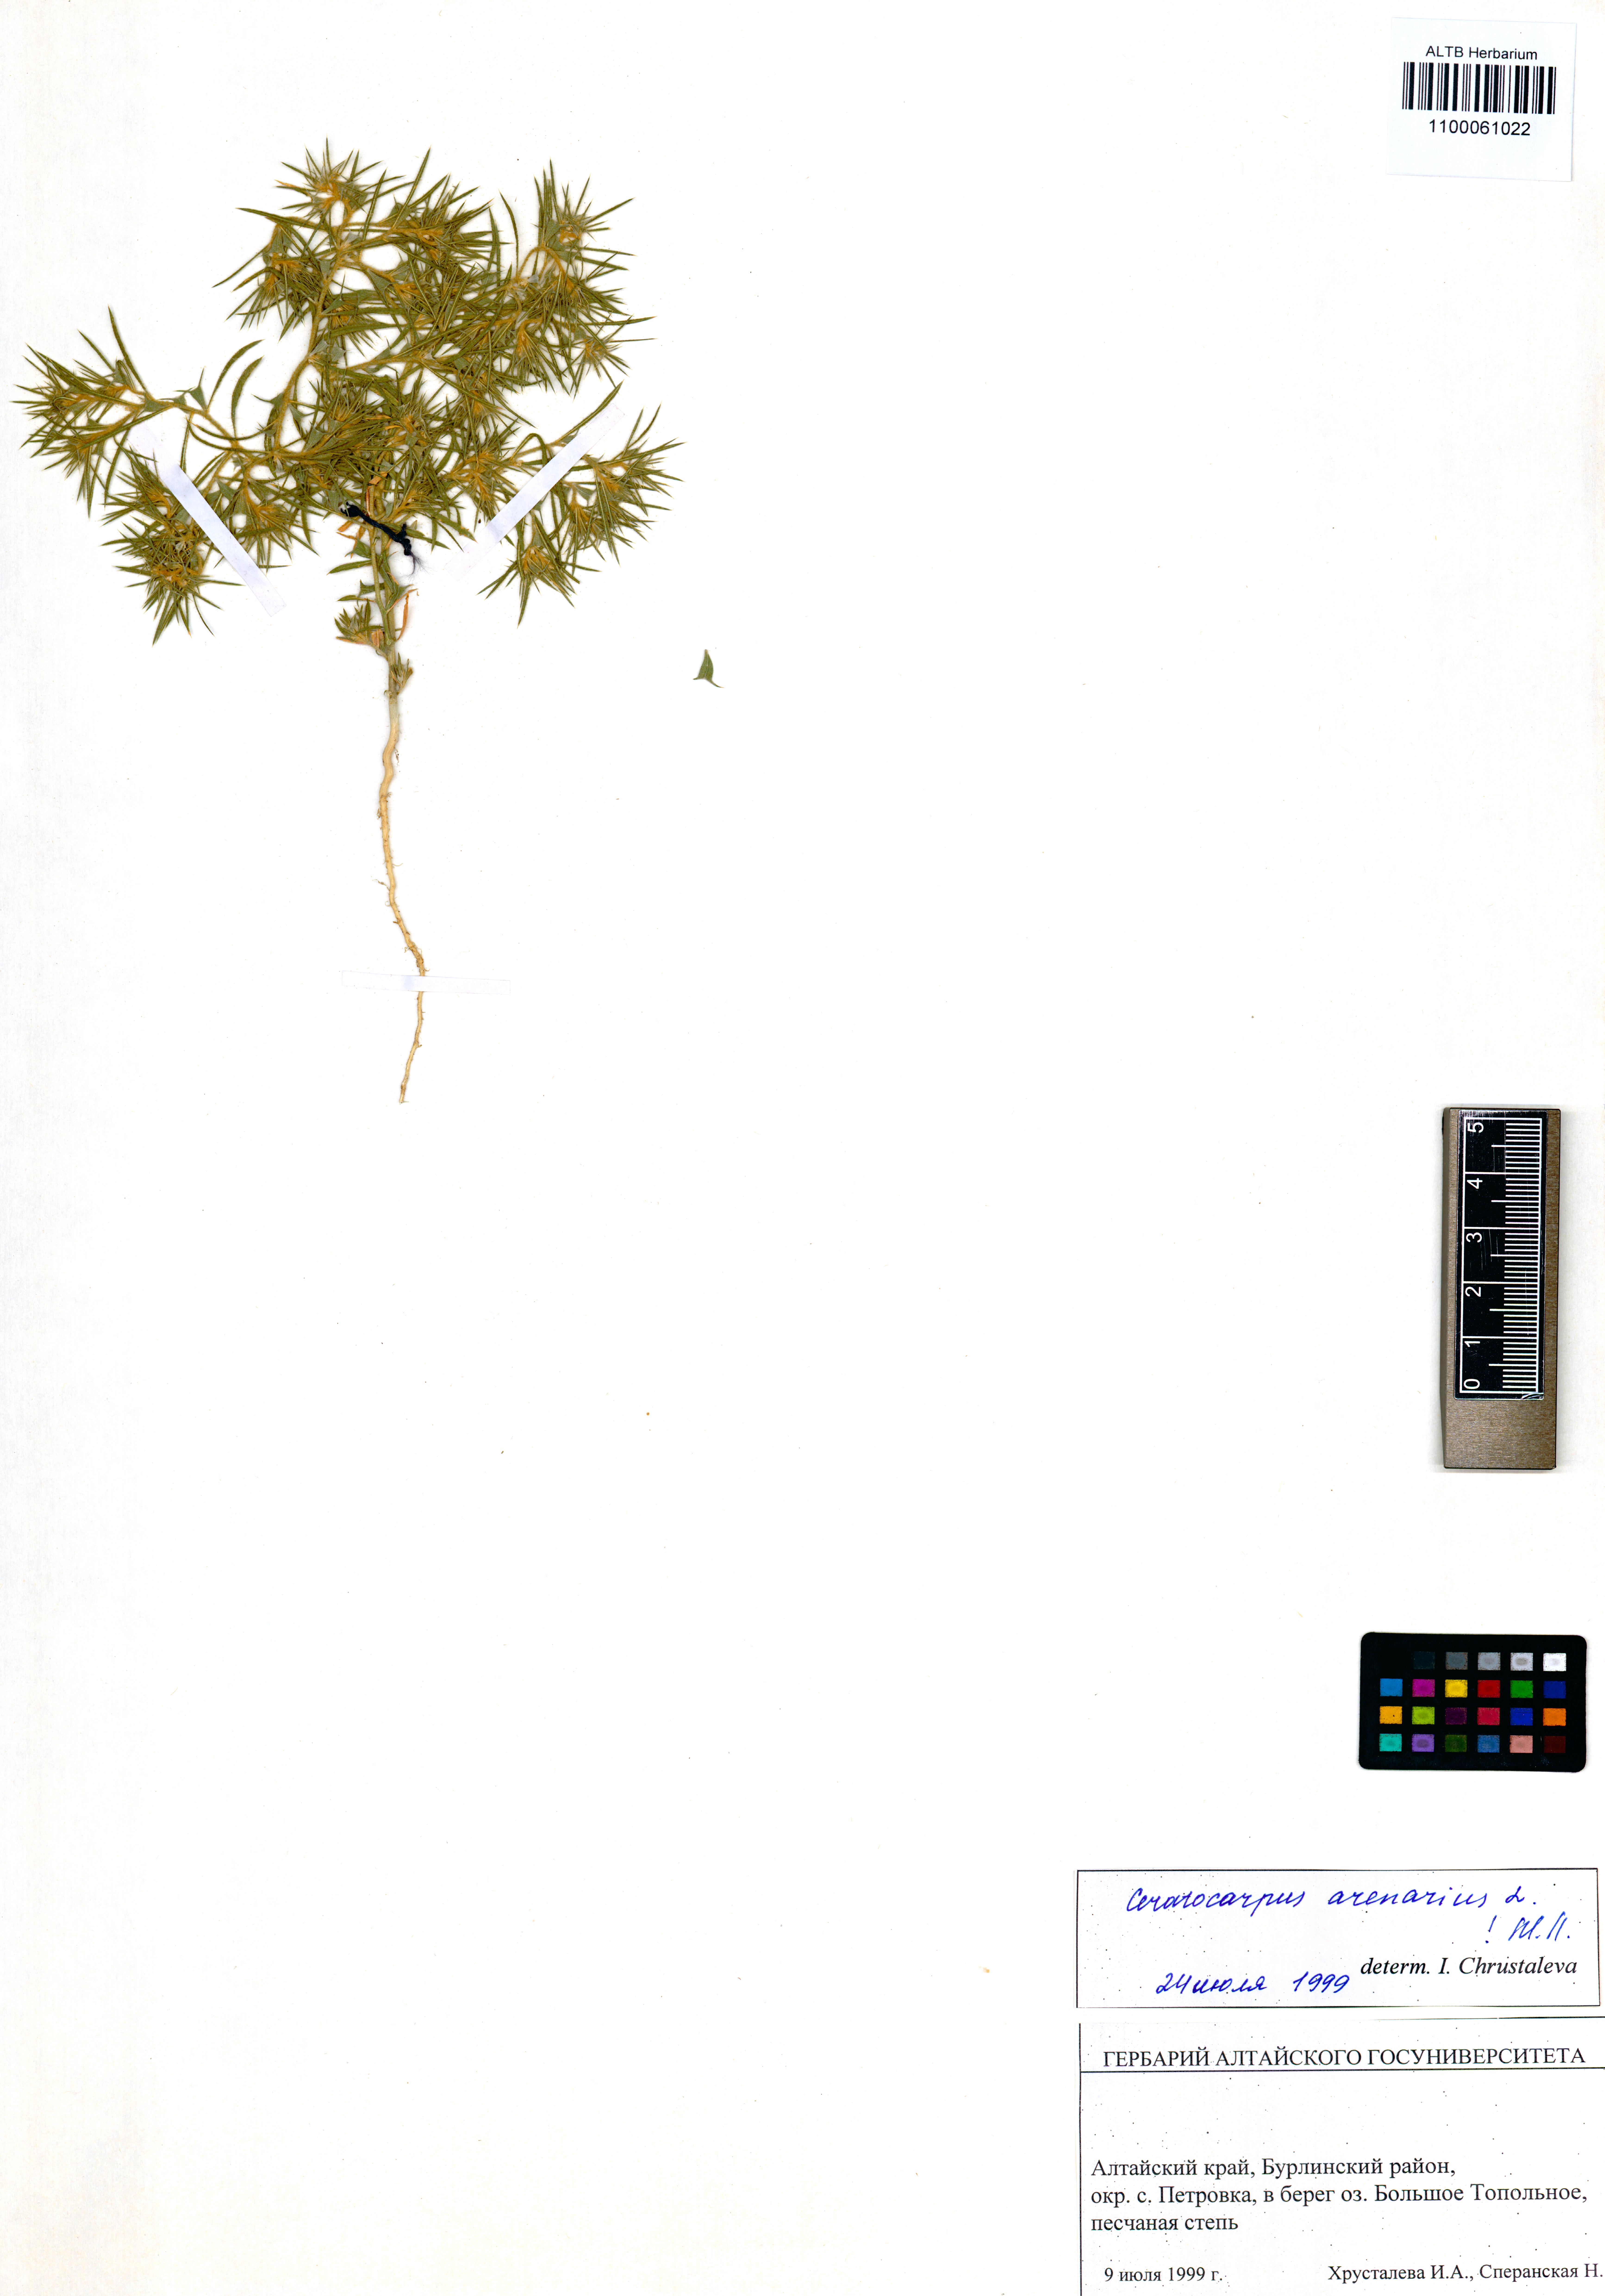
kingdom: Plantae
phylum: Tracheophyta
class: Magnoliopsida
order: Caryophyllales
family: Amaranthaceae
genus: Ceratocarpus
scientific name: Ceratocarpus arenarius
